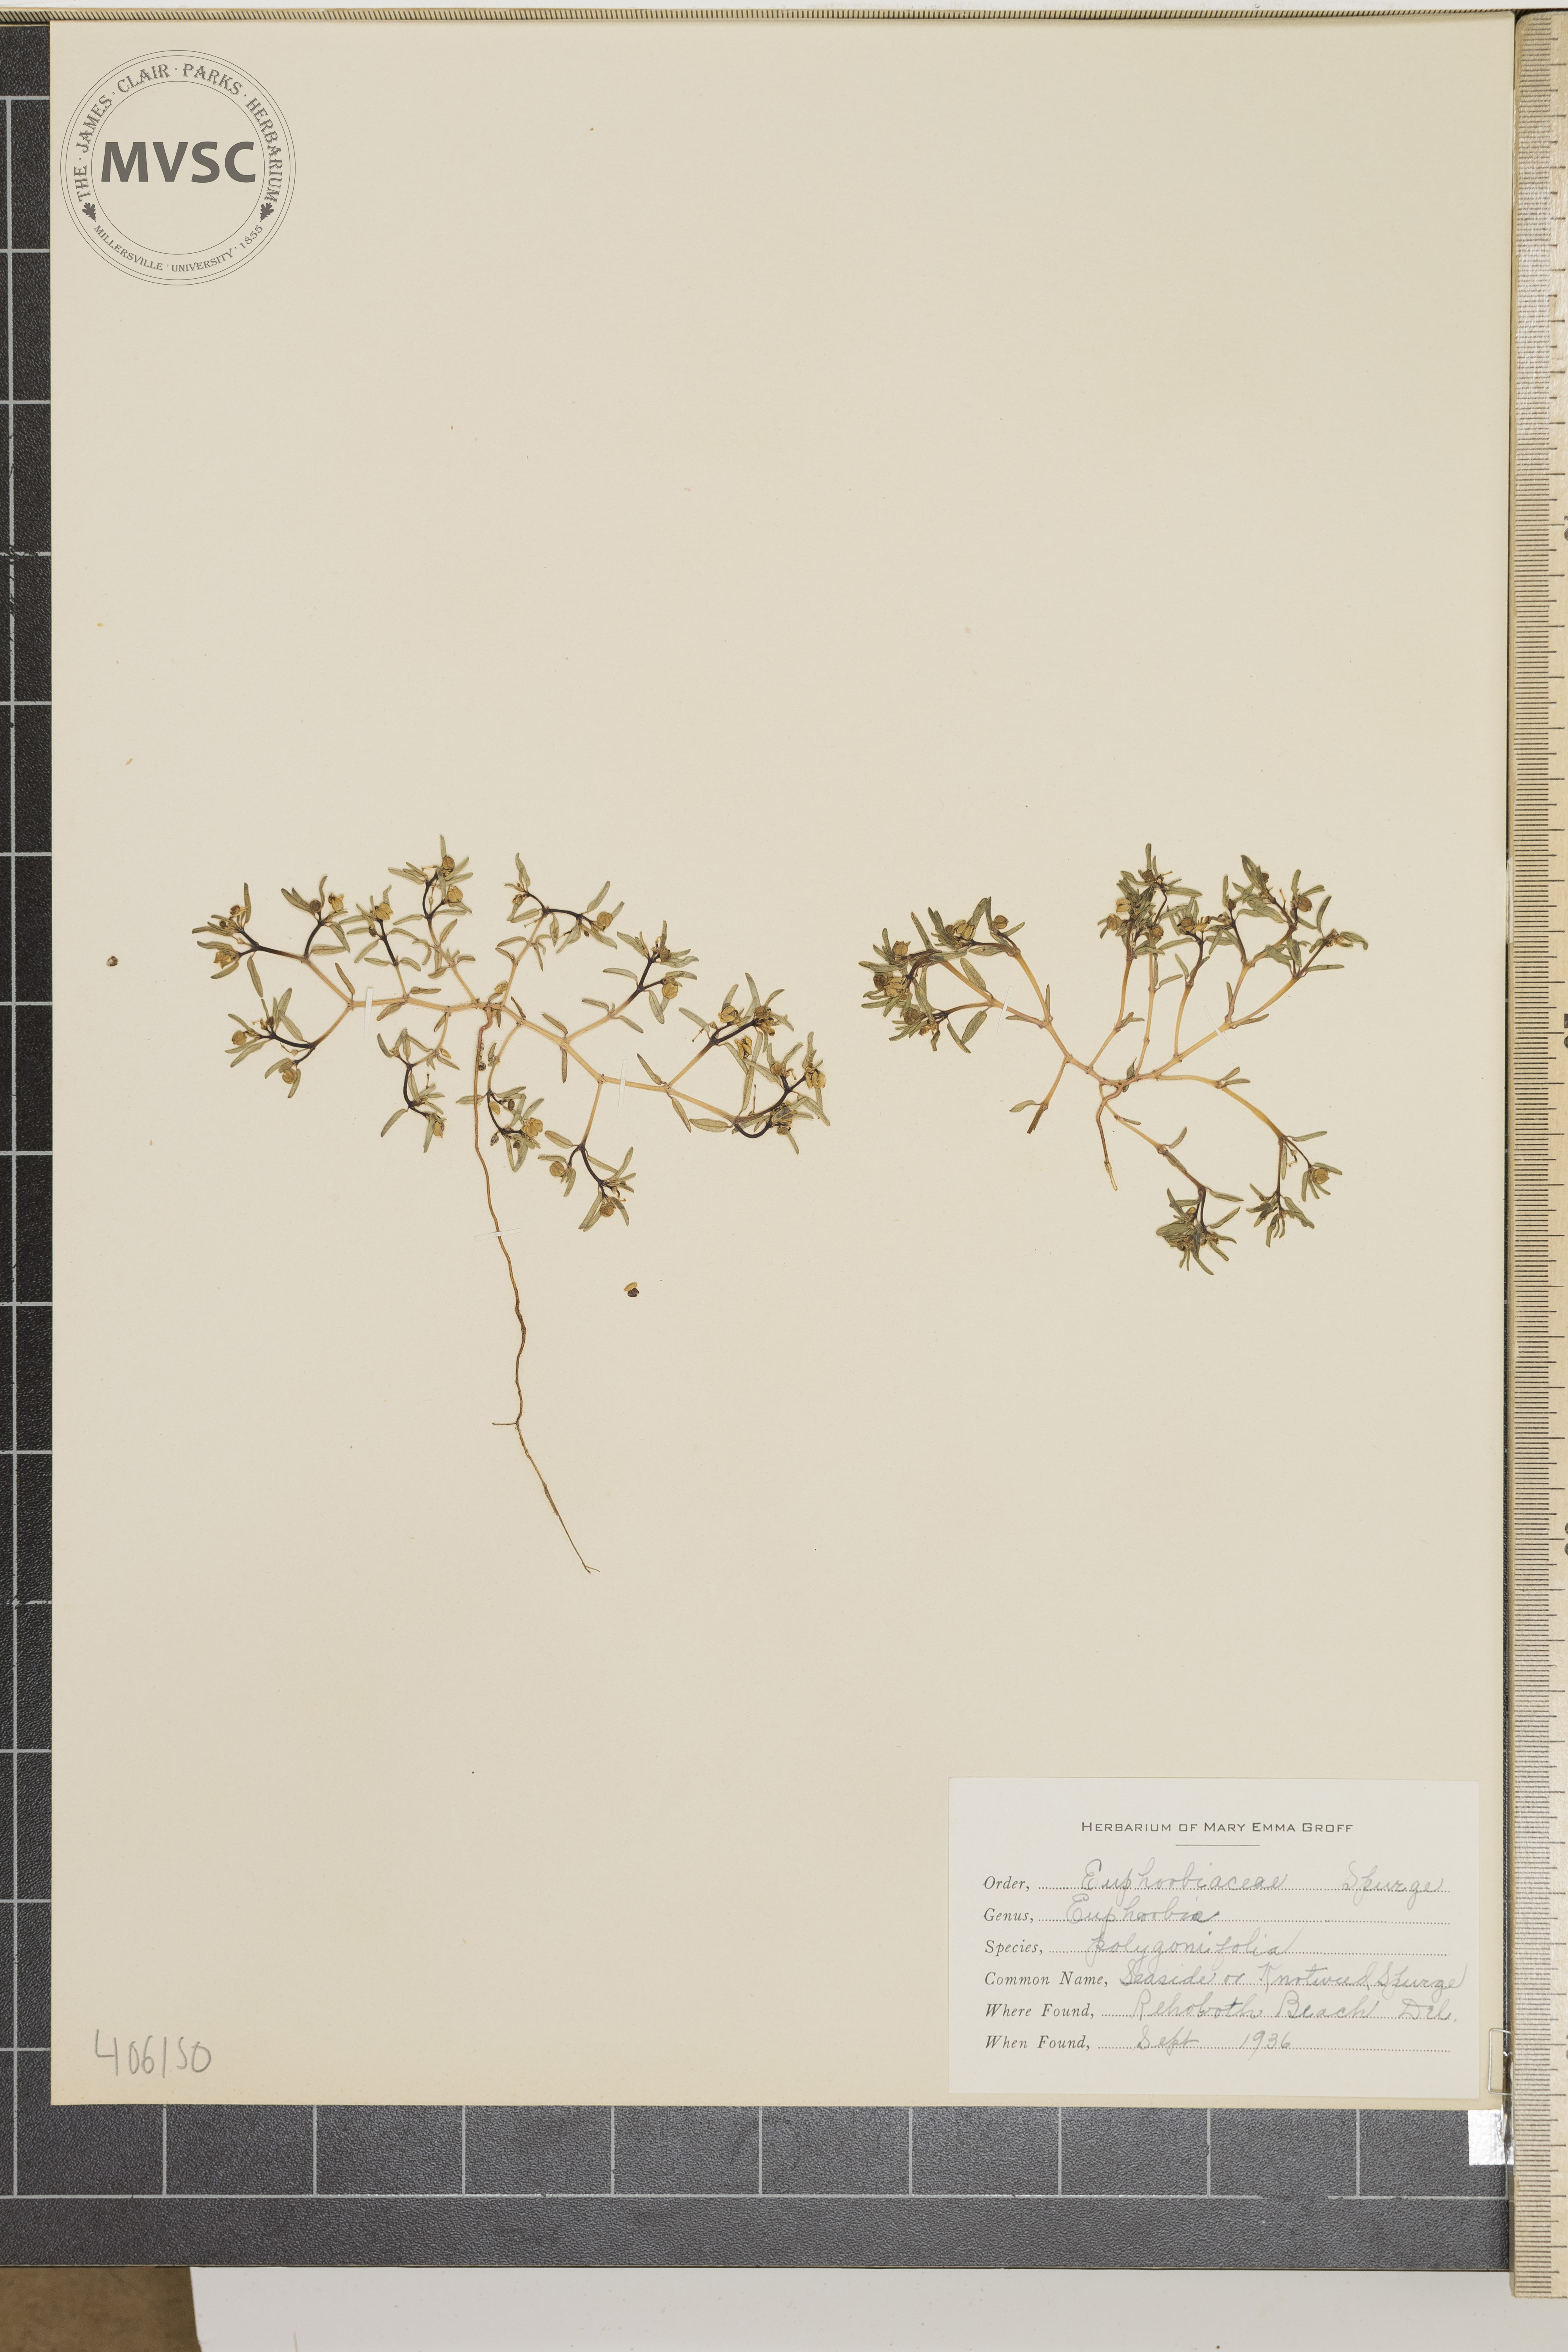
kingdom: Plantae
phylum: Tracheophyta
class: Magnoliopsida
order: Malpighiales
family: Euphorbiaceae
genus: Euphorbia
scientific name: Euphorbia polygonifolia
